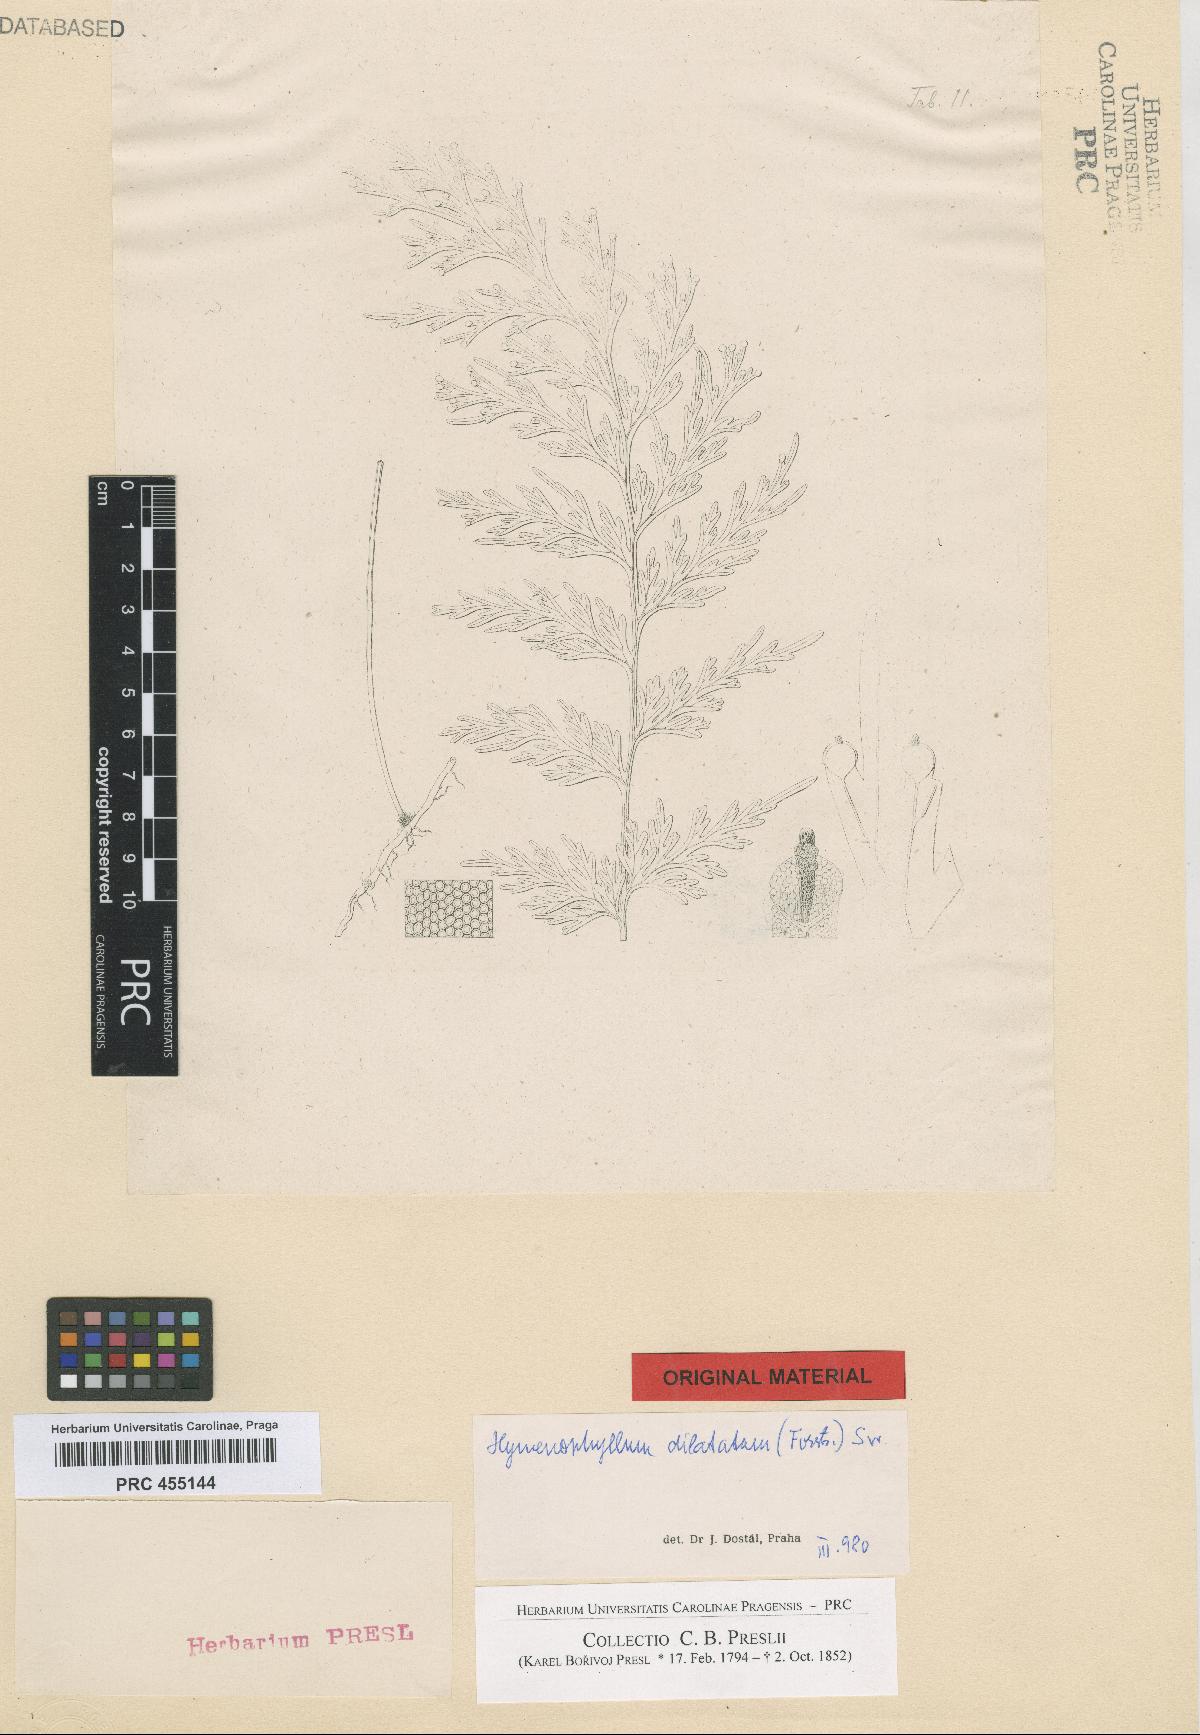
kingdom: Plantae
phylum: Tracheophyta
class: Polypodiopsida
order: Hymenophyllales
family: Hymenophyllaceae
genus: Hymenophyllum
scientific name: Hymenophyllum dilatatum
